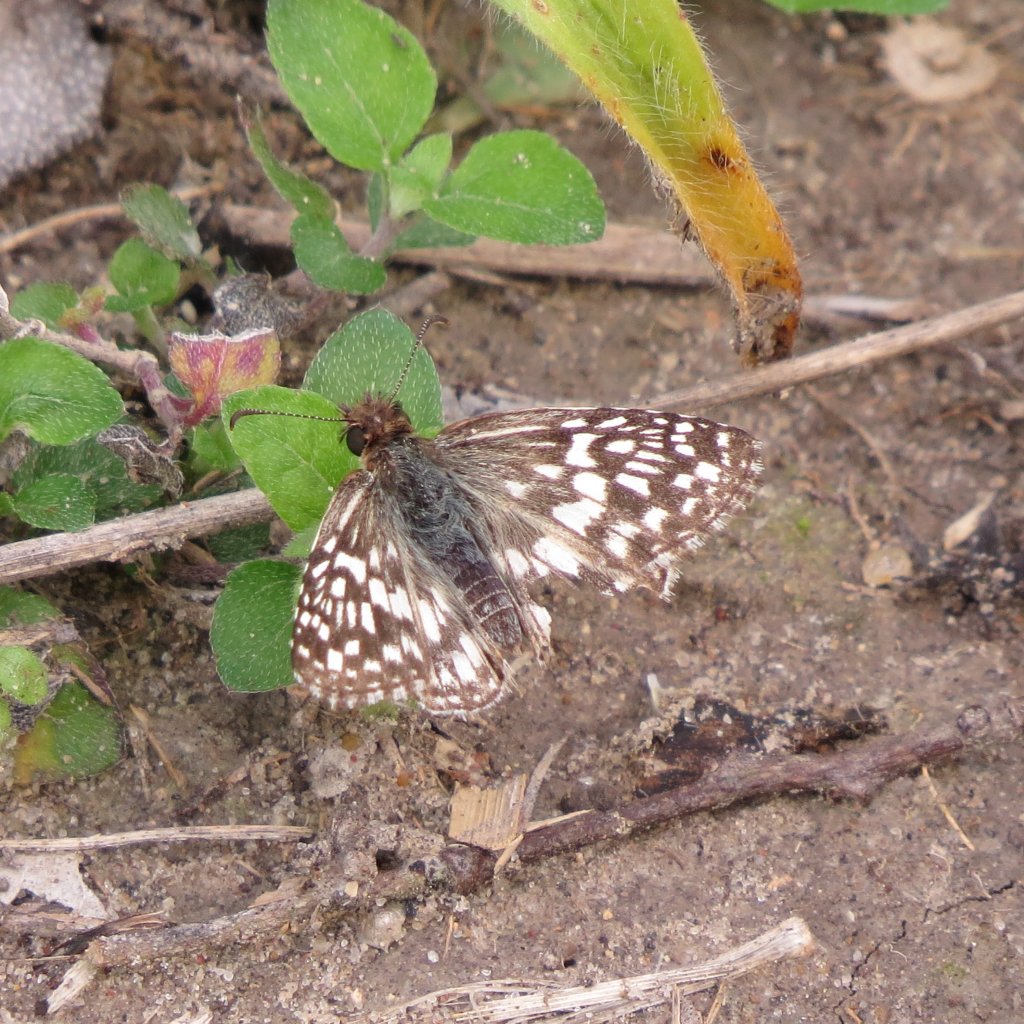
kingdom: Animalia
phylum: Arthropoda
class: Insecta
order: Lepidoptera
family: Hesperiidae
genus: Pyrgus
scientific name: Pyrgus oileus
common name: Tropical Checkered-Skipper
